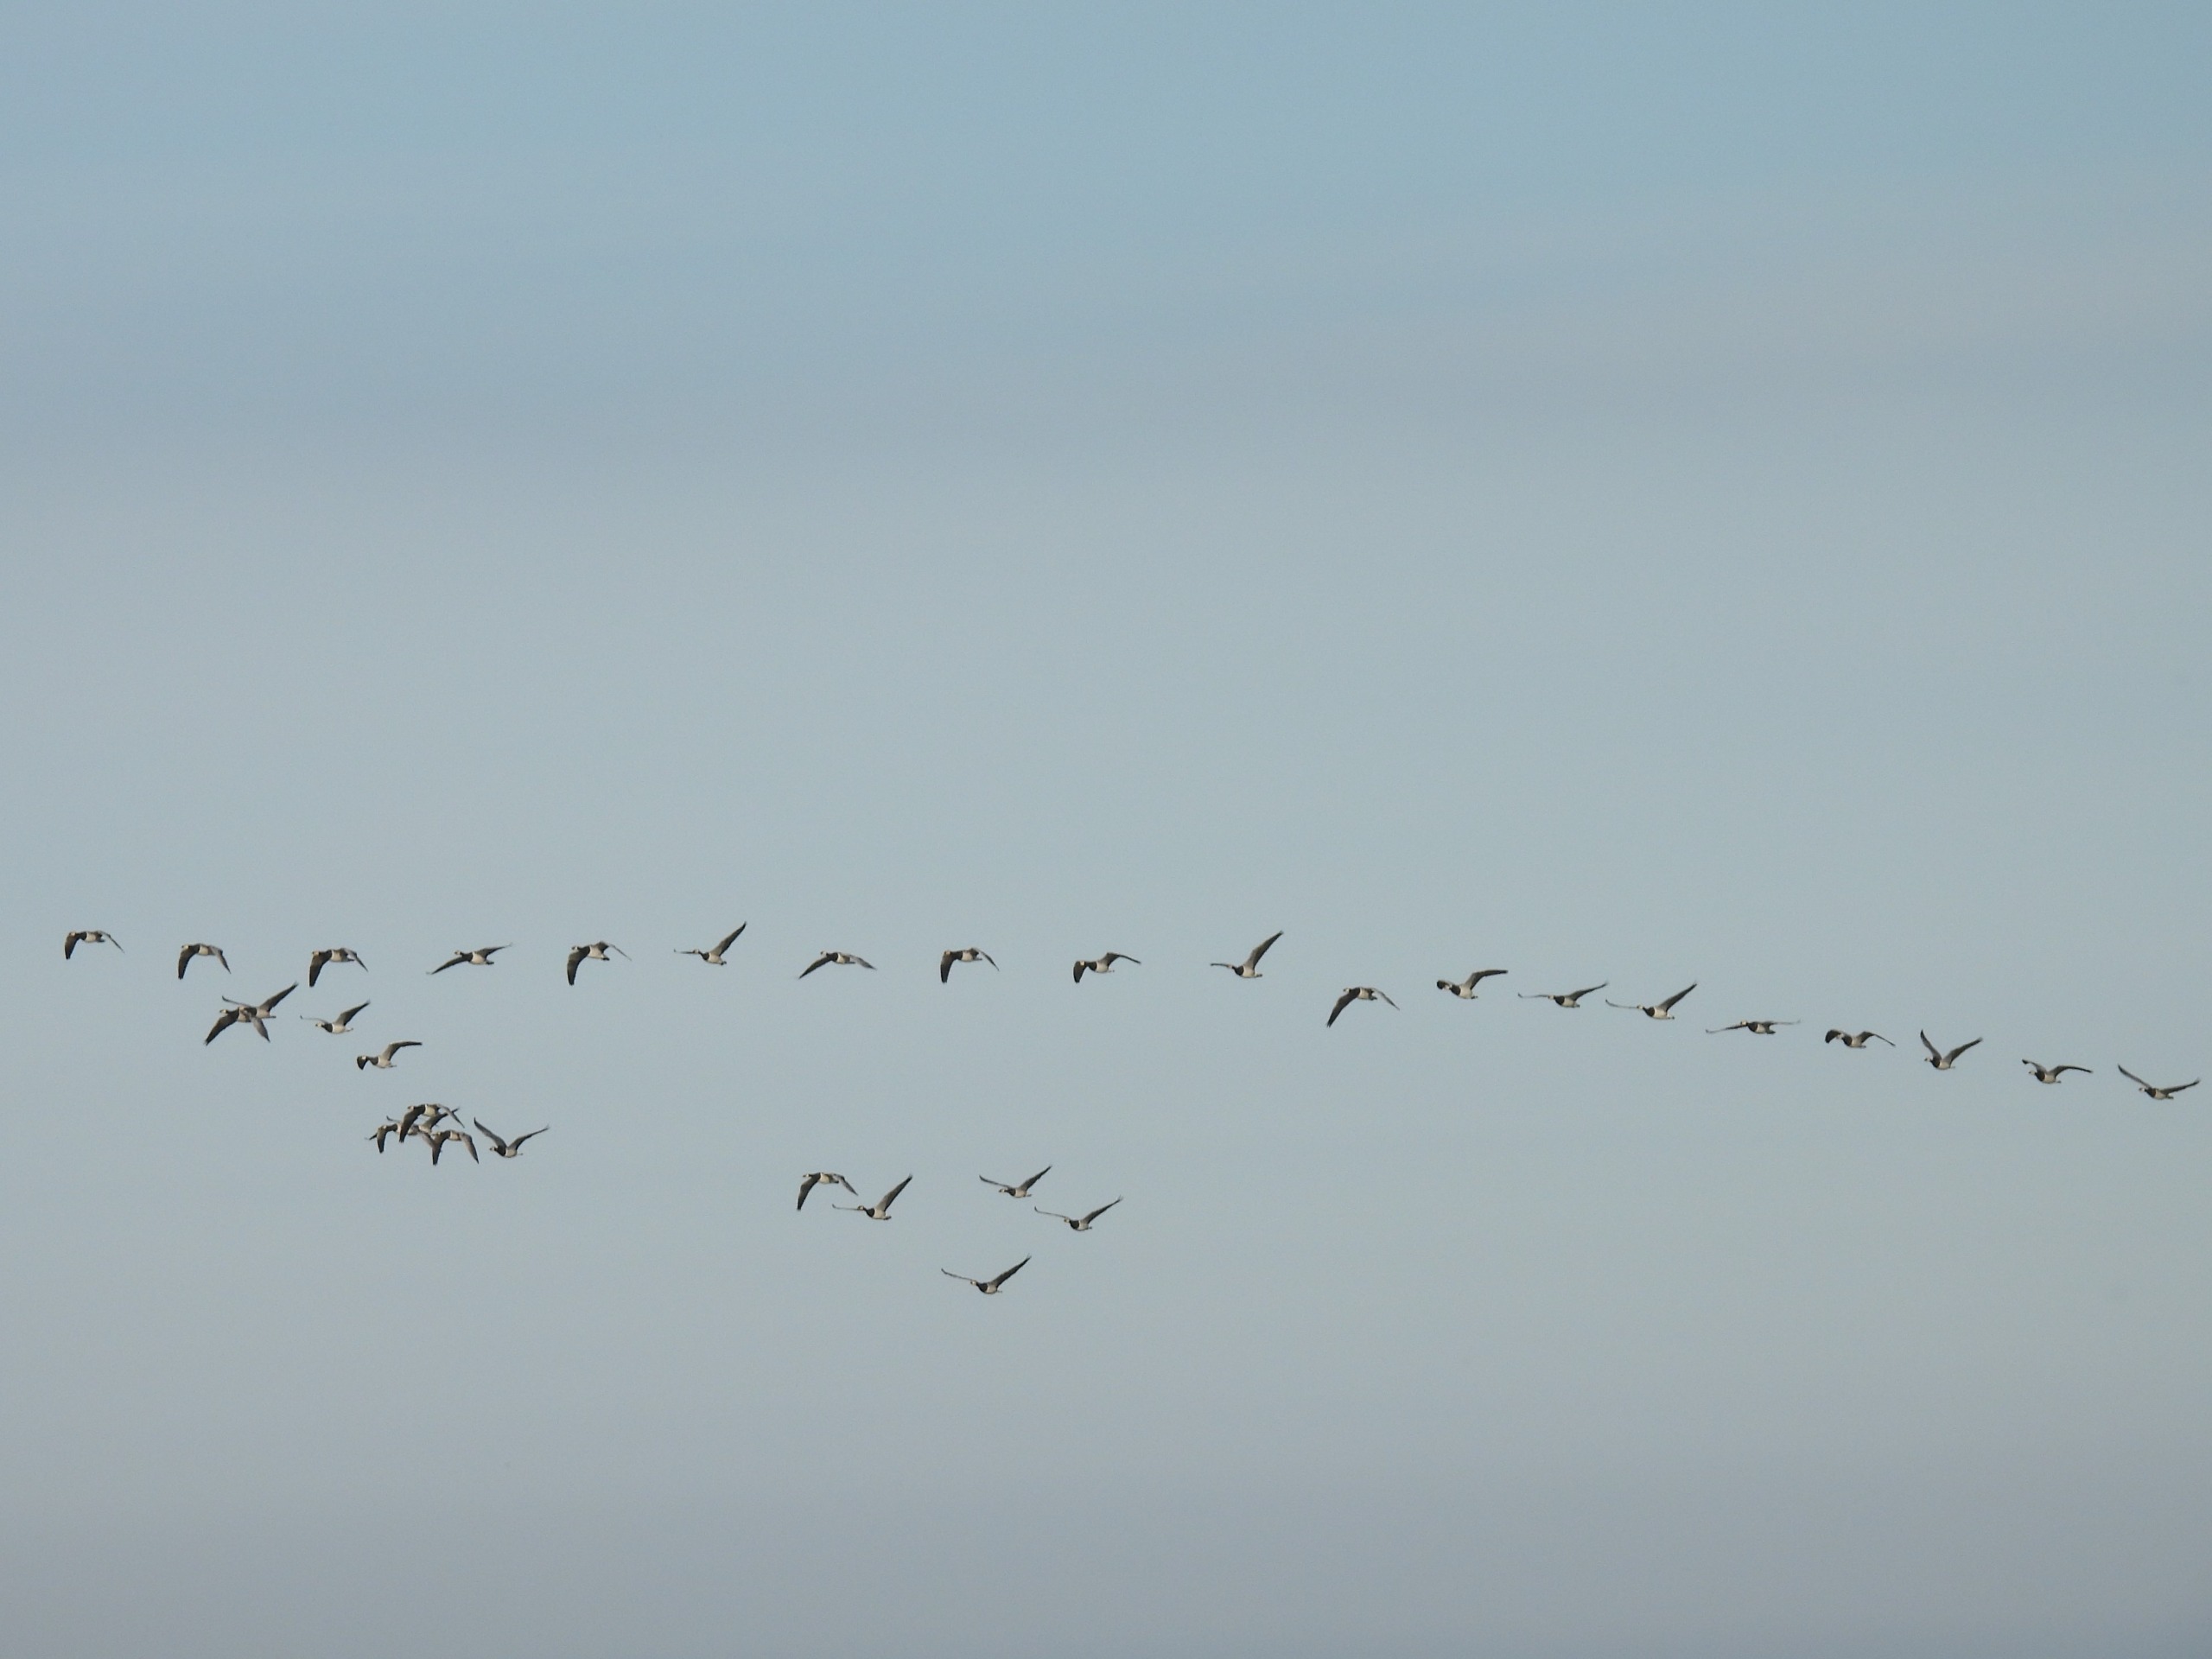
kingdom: Animalia
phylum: Chordata
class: Aves
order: Anseriformes
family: Anatidae
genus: Branta
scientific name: Branta leucopsis
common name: Bramgås
